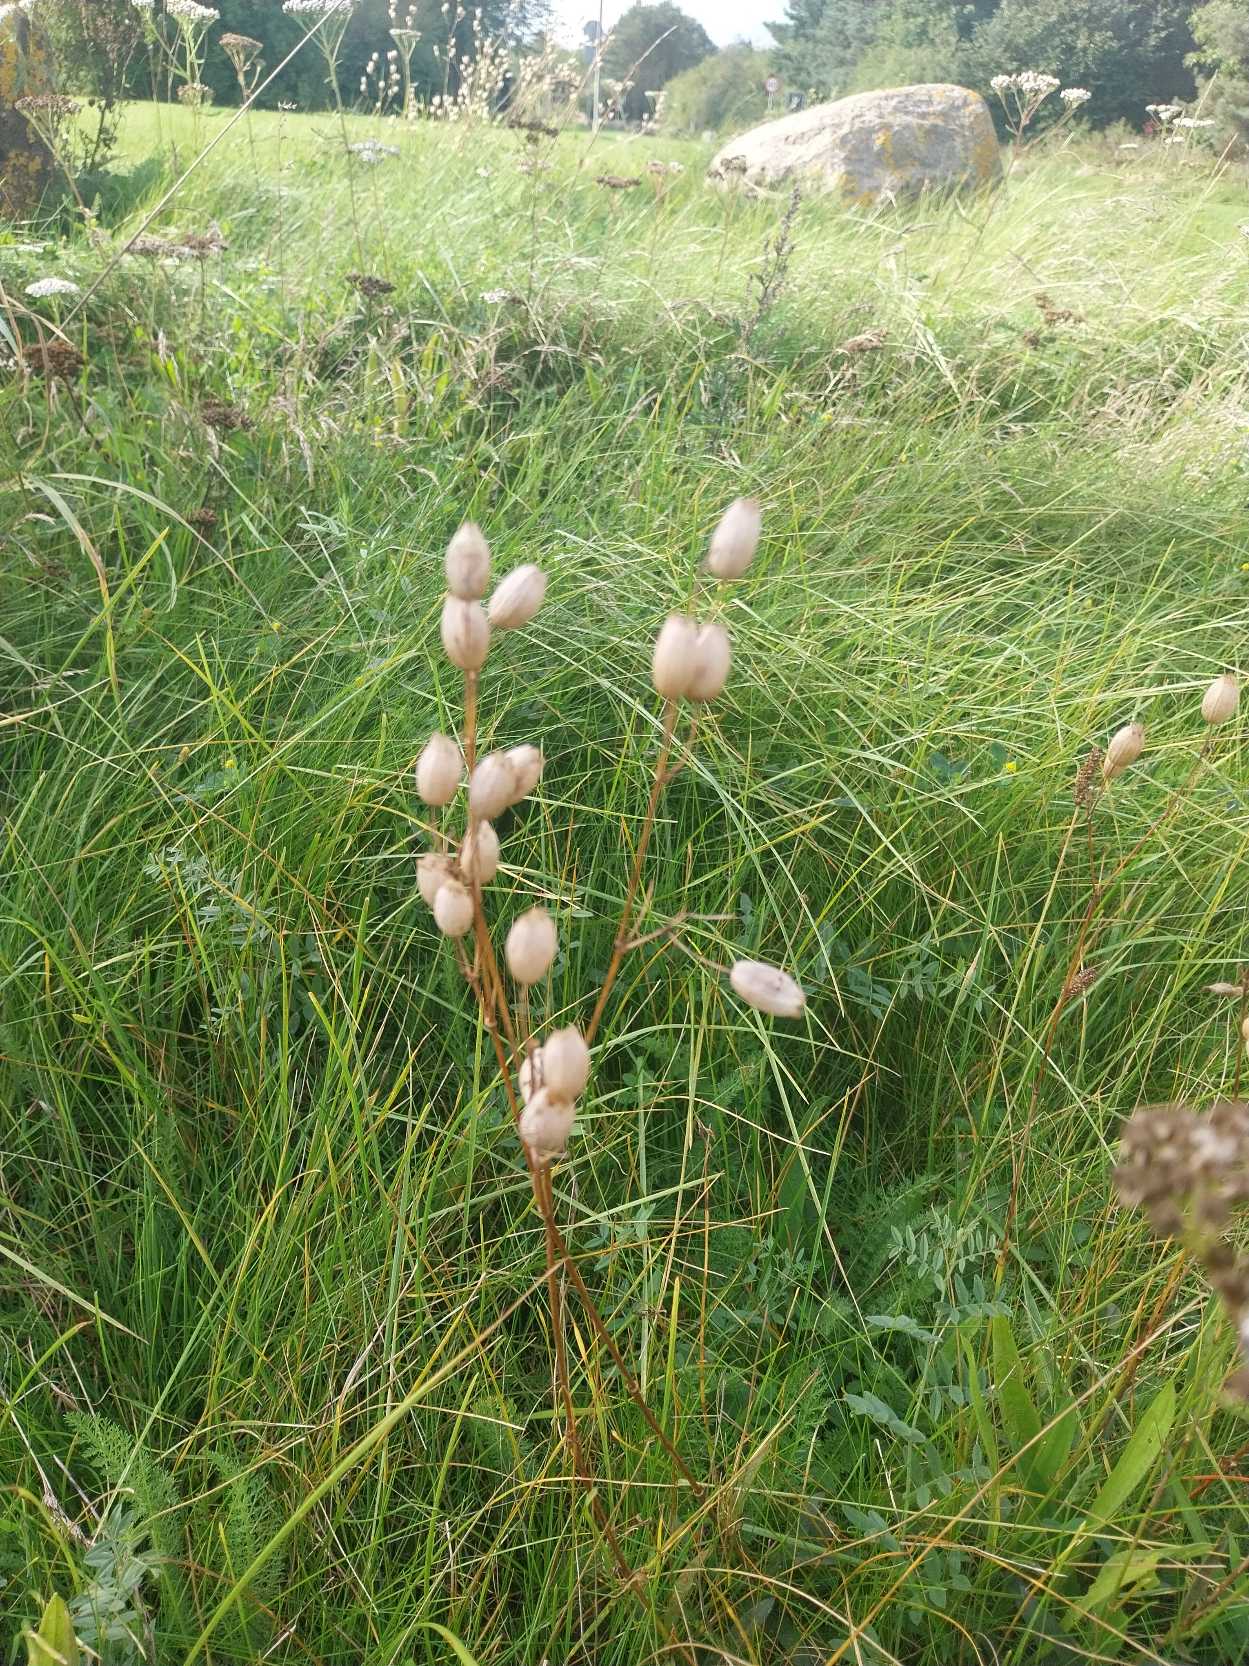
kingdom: Plantae
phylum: Tracheophyta
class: Magnoliopsida
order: Caryophyllales
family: Caryophyllaceae
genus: Silene
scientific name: Silene vulgaris
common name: Blæresmælde
